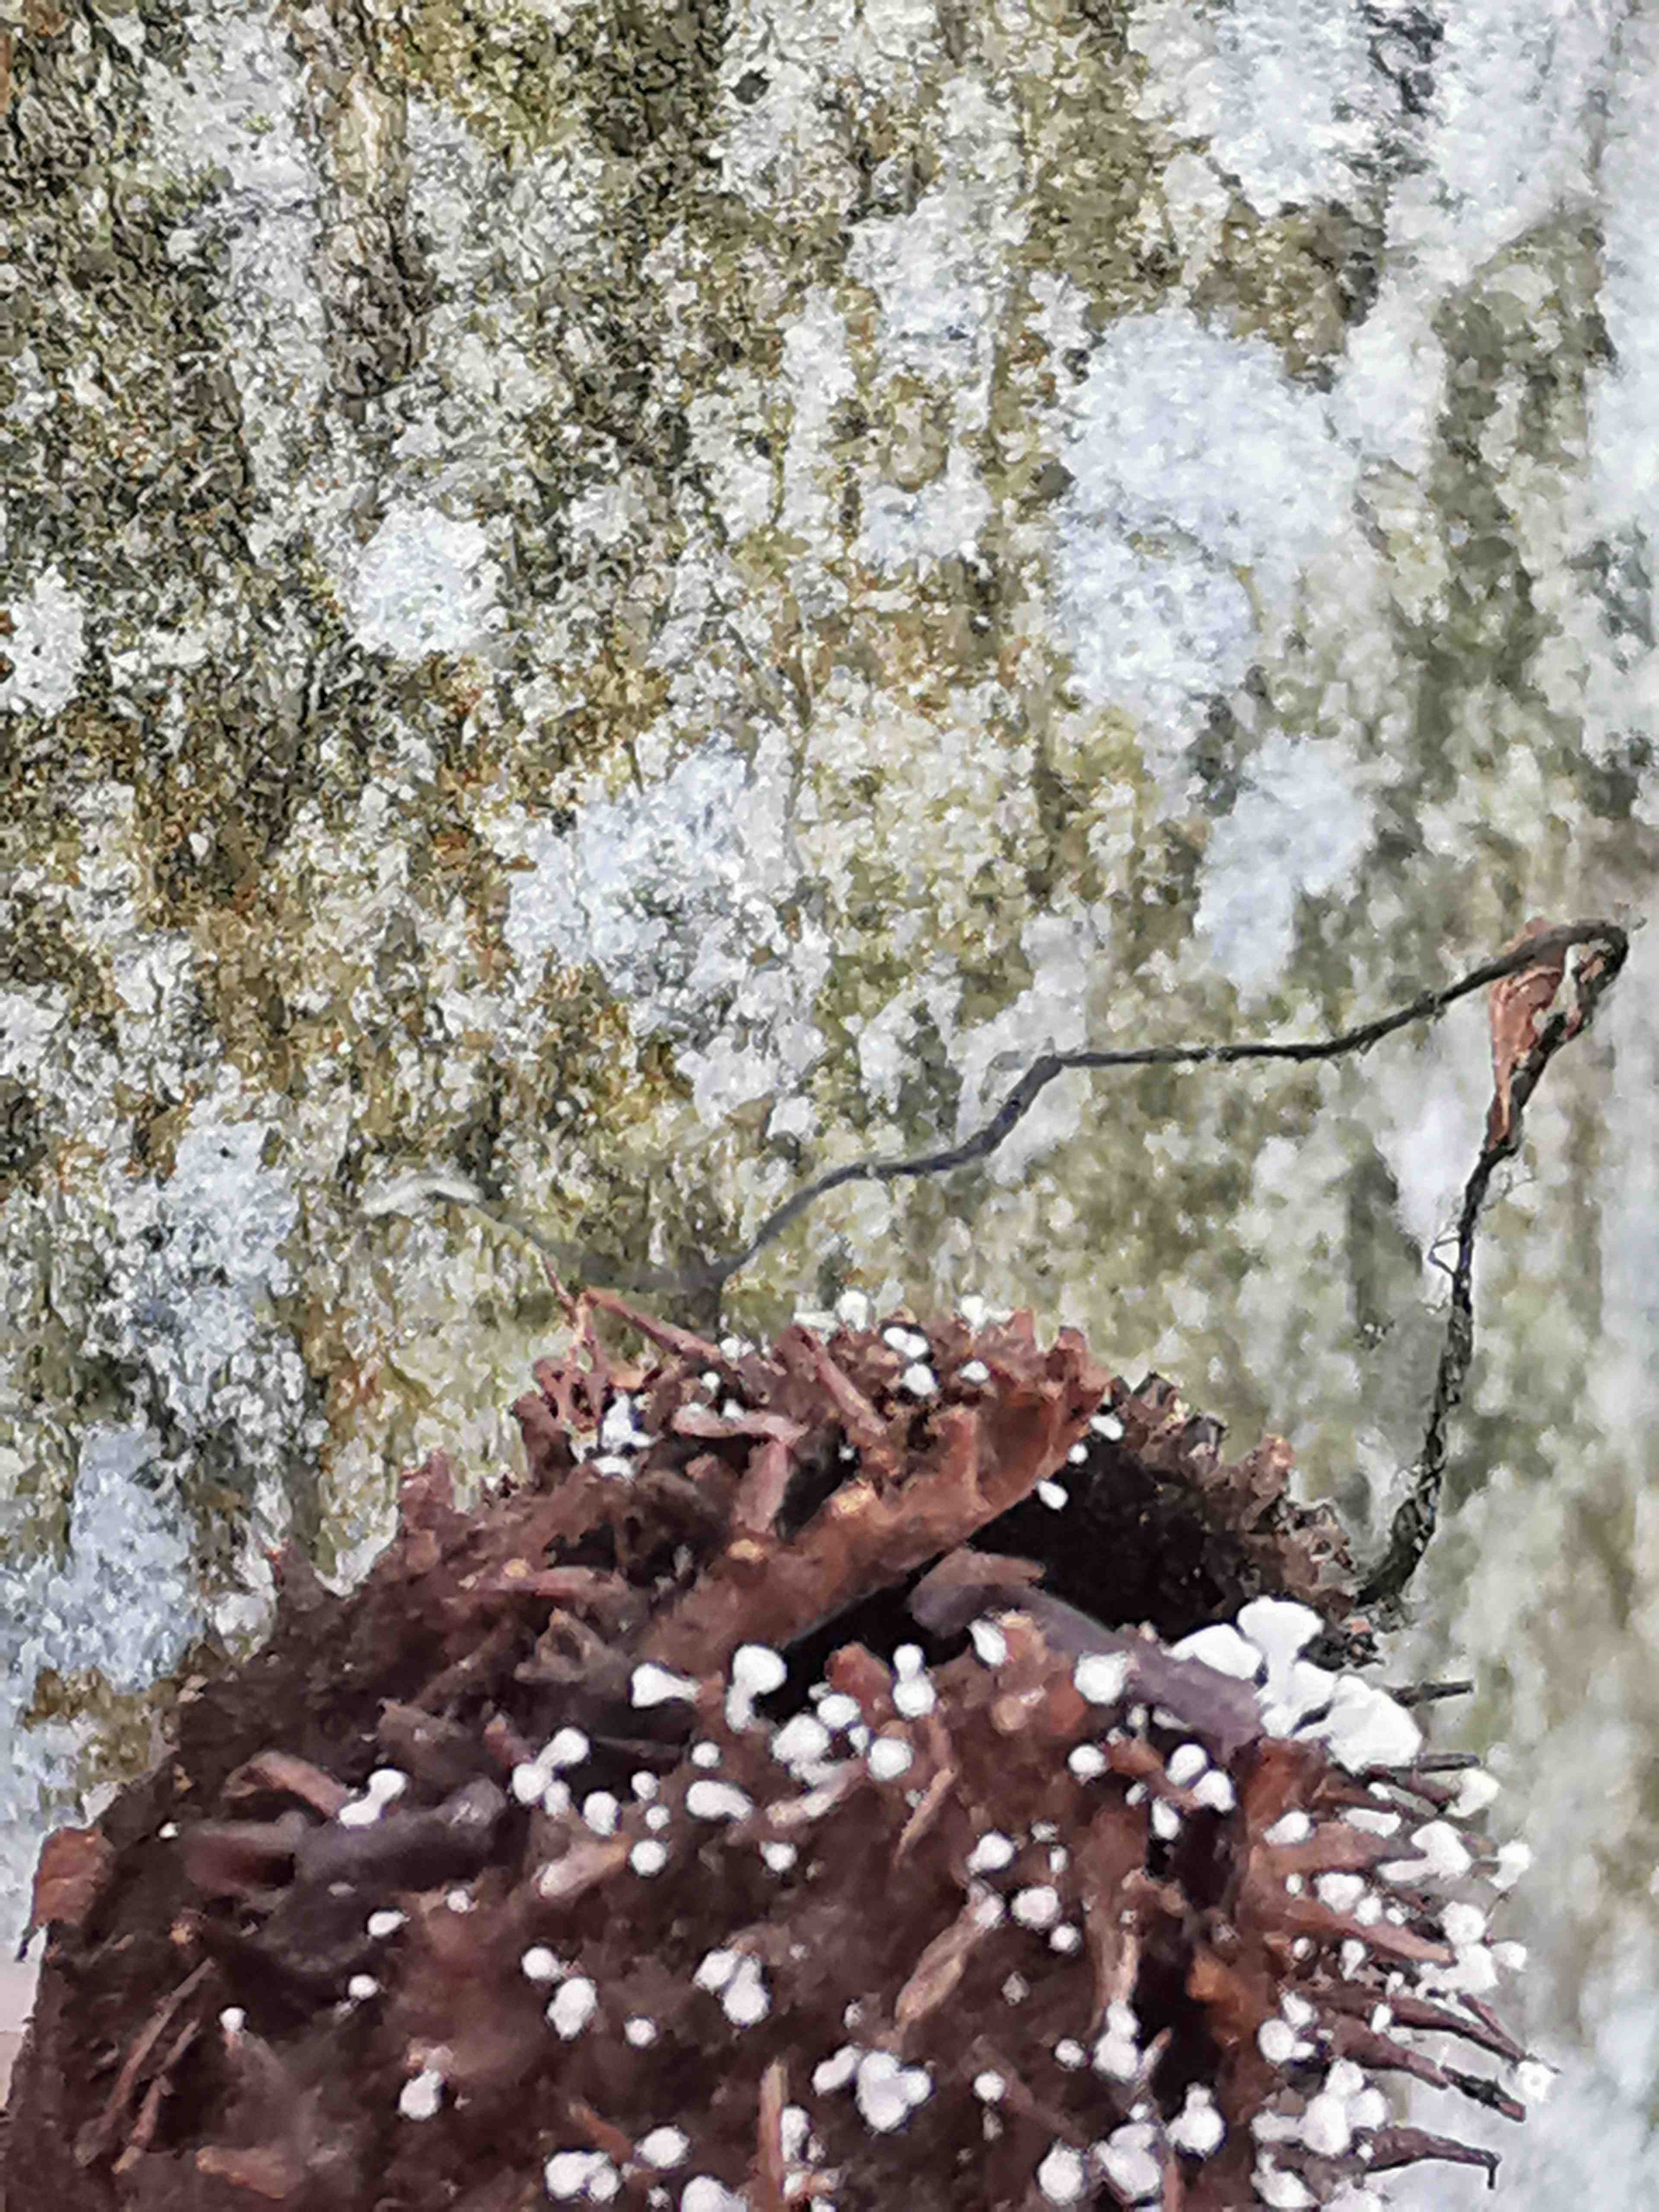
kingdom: Fungi
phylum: Ascomycota
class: Sordariomycetes
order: Xylariales
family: Xylariaceae
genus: Xylaria
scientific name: Xylaria carpophila
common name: bogskål-stødsvamp
